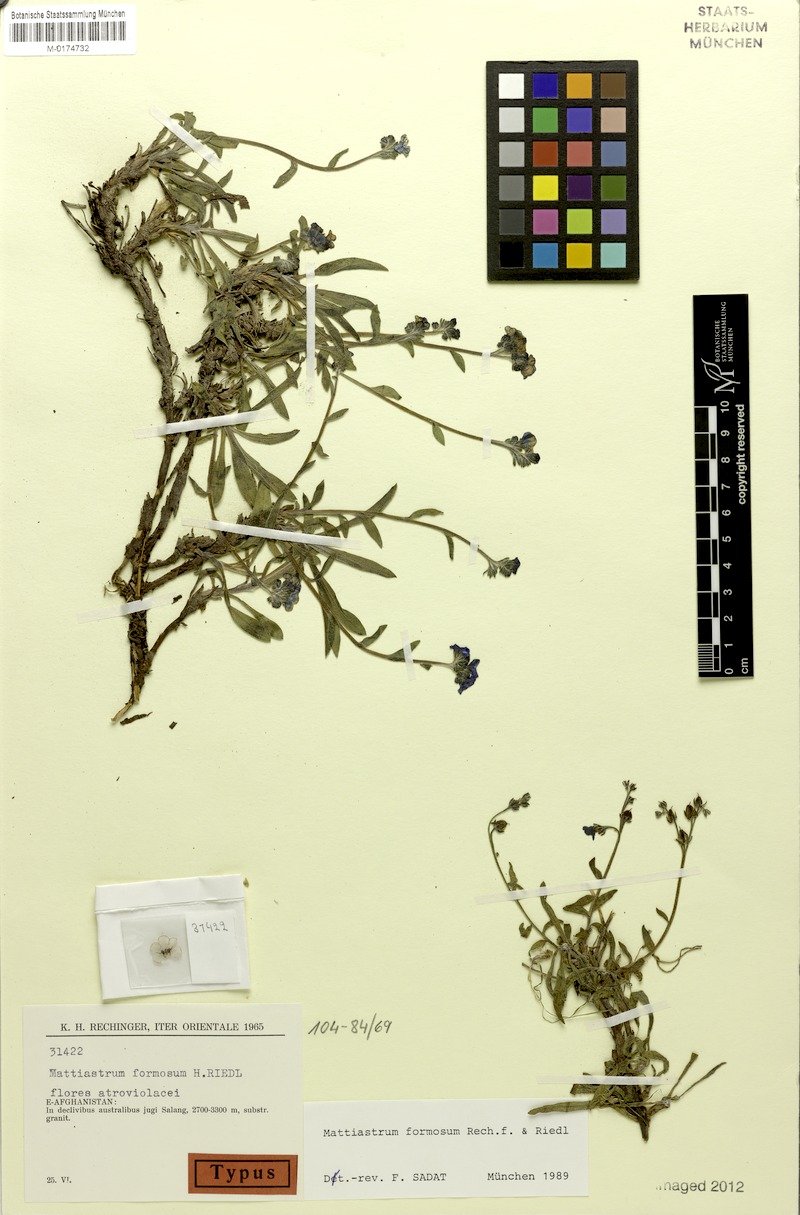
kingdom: Plantae
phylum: Tracheophyta
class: Magnoliopsida
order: Boraginales
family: Boraginaceae
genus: Paracaryum
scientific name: Paracaryum rechingeri
